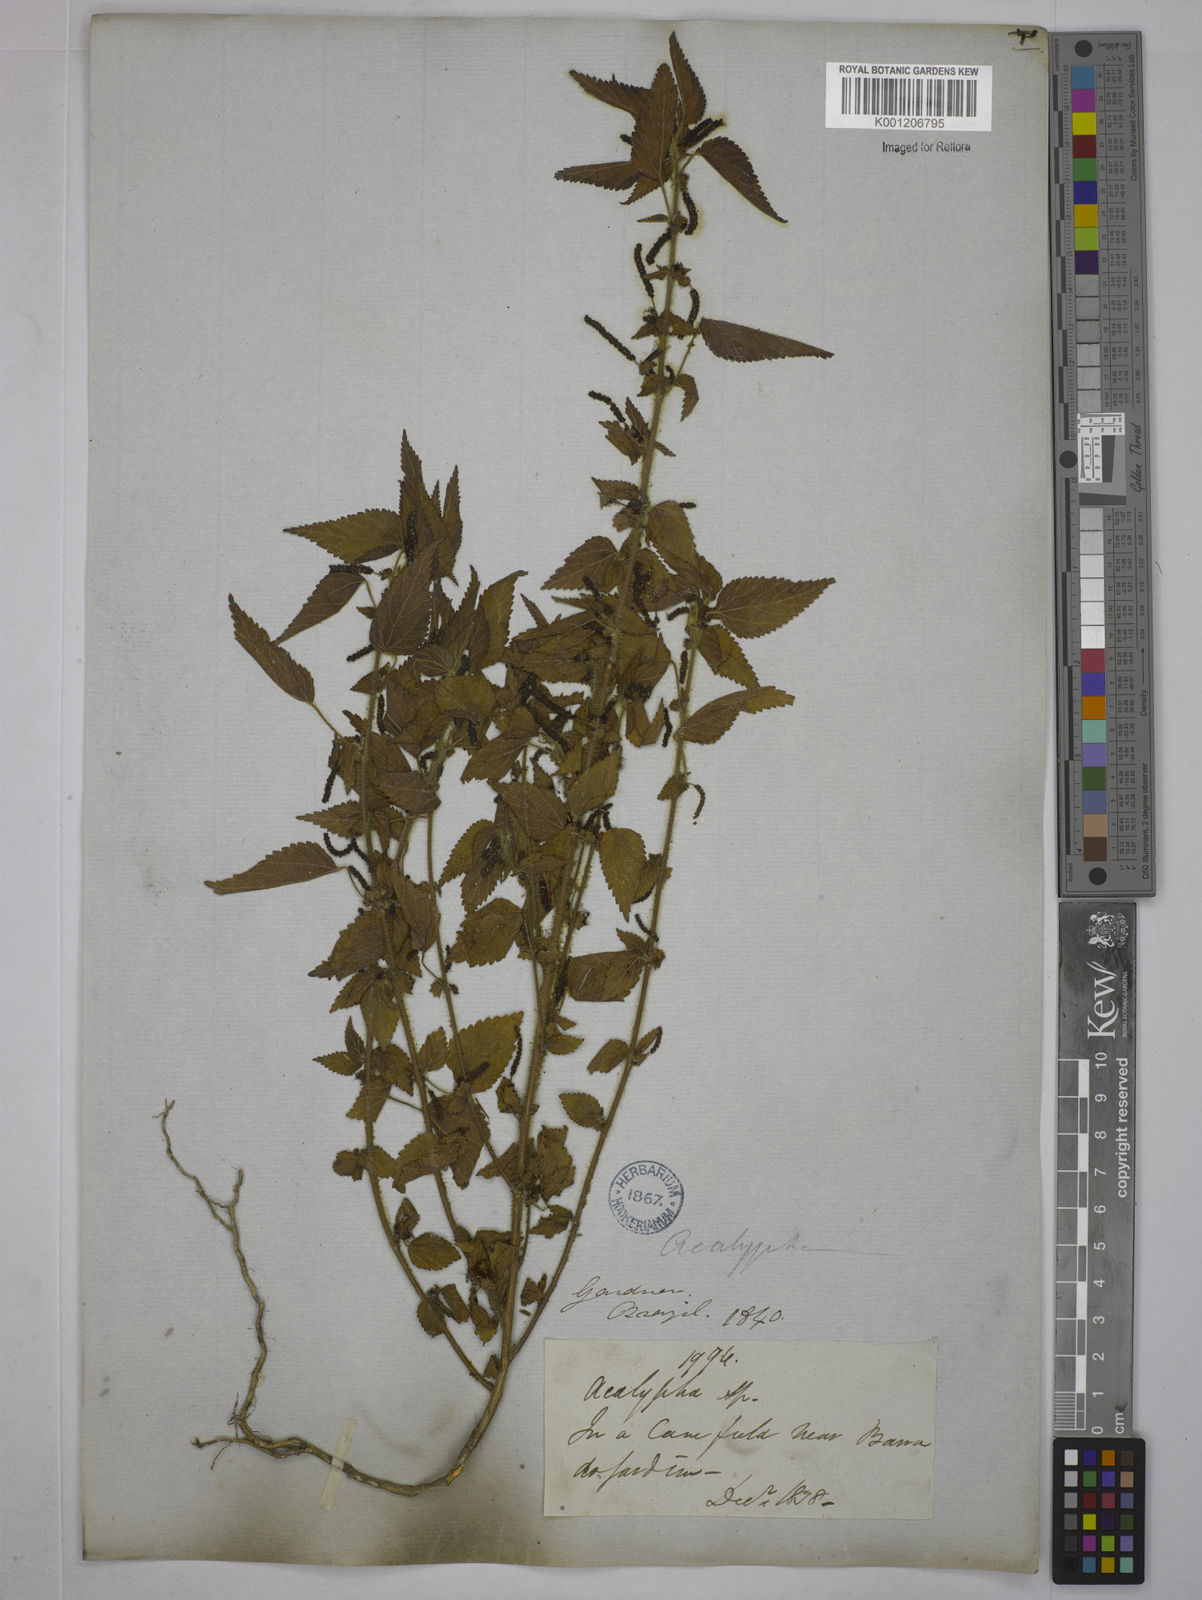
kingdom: Plantae
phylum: Tracheophyta
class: Magnoliopsida
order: Malpighiales
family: Euphorbiaceae
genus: Acalypha
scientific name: Acalypha
